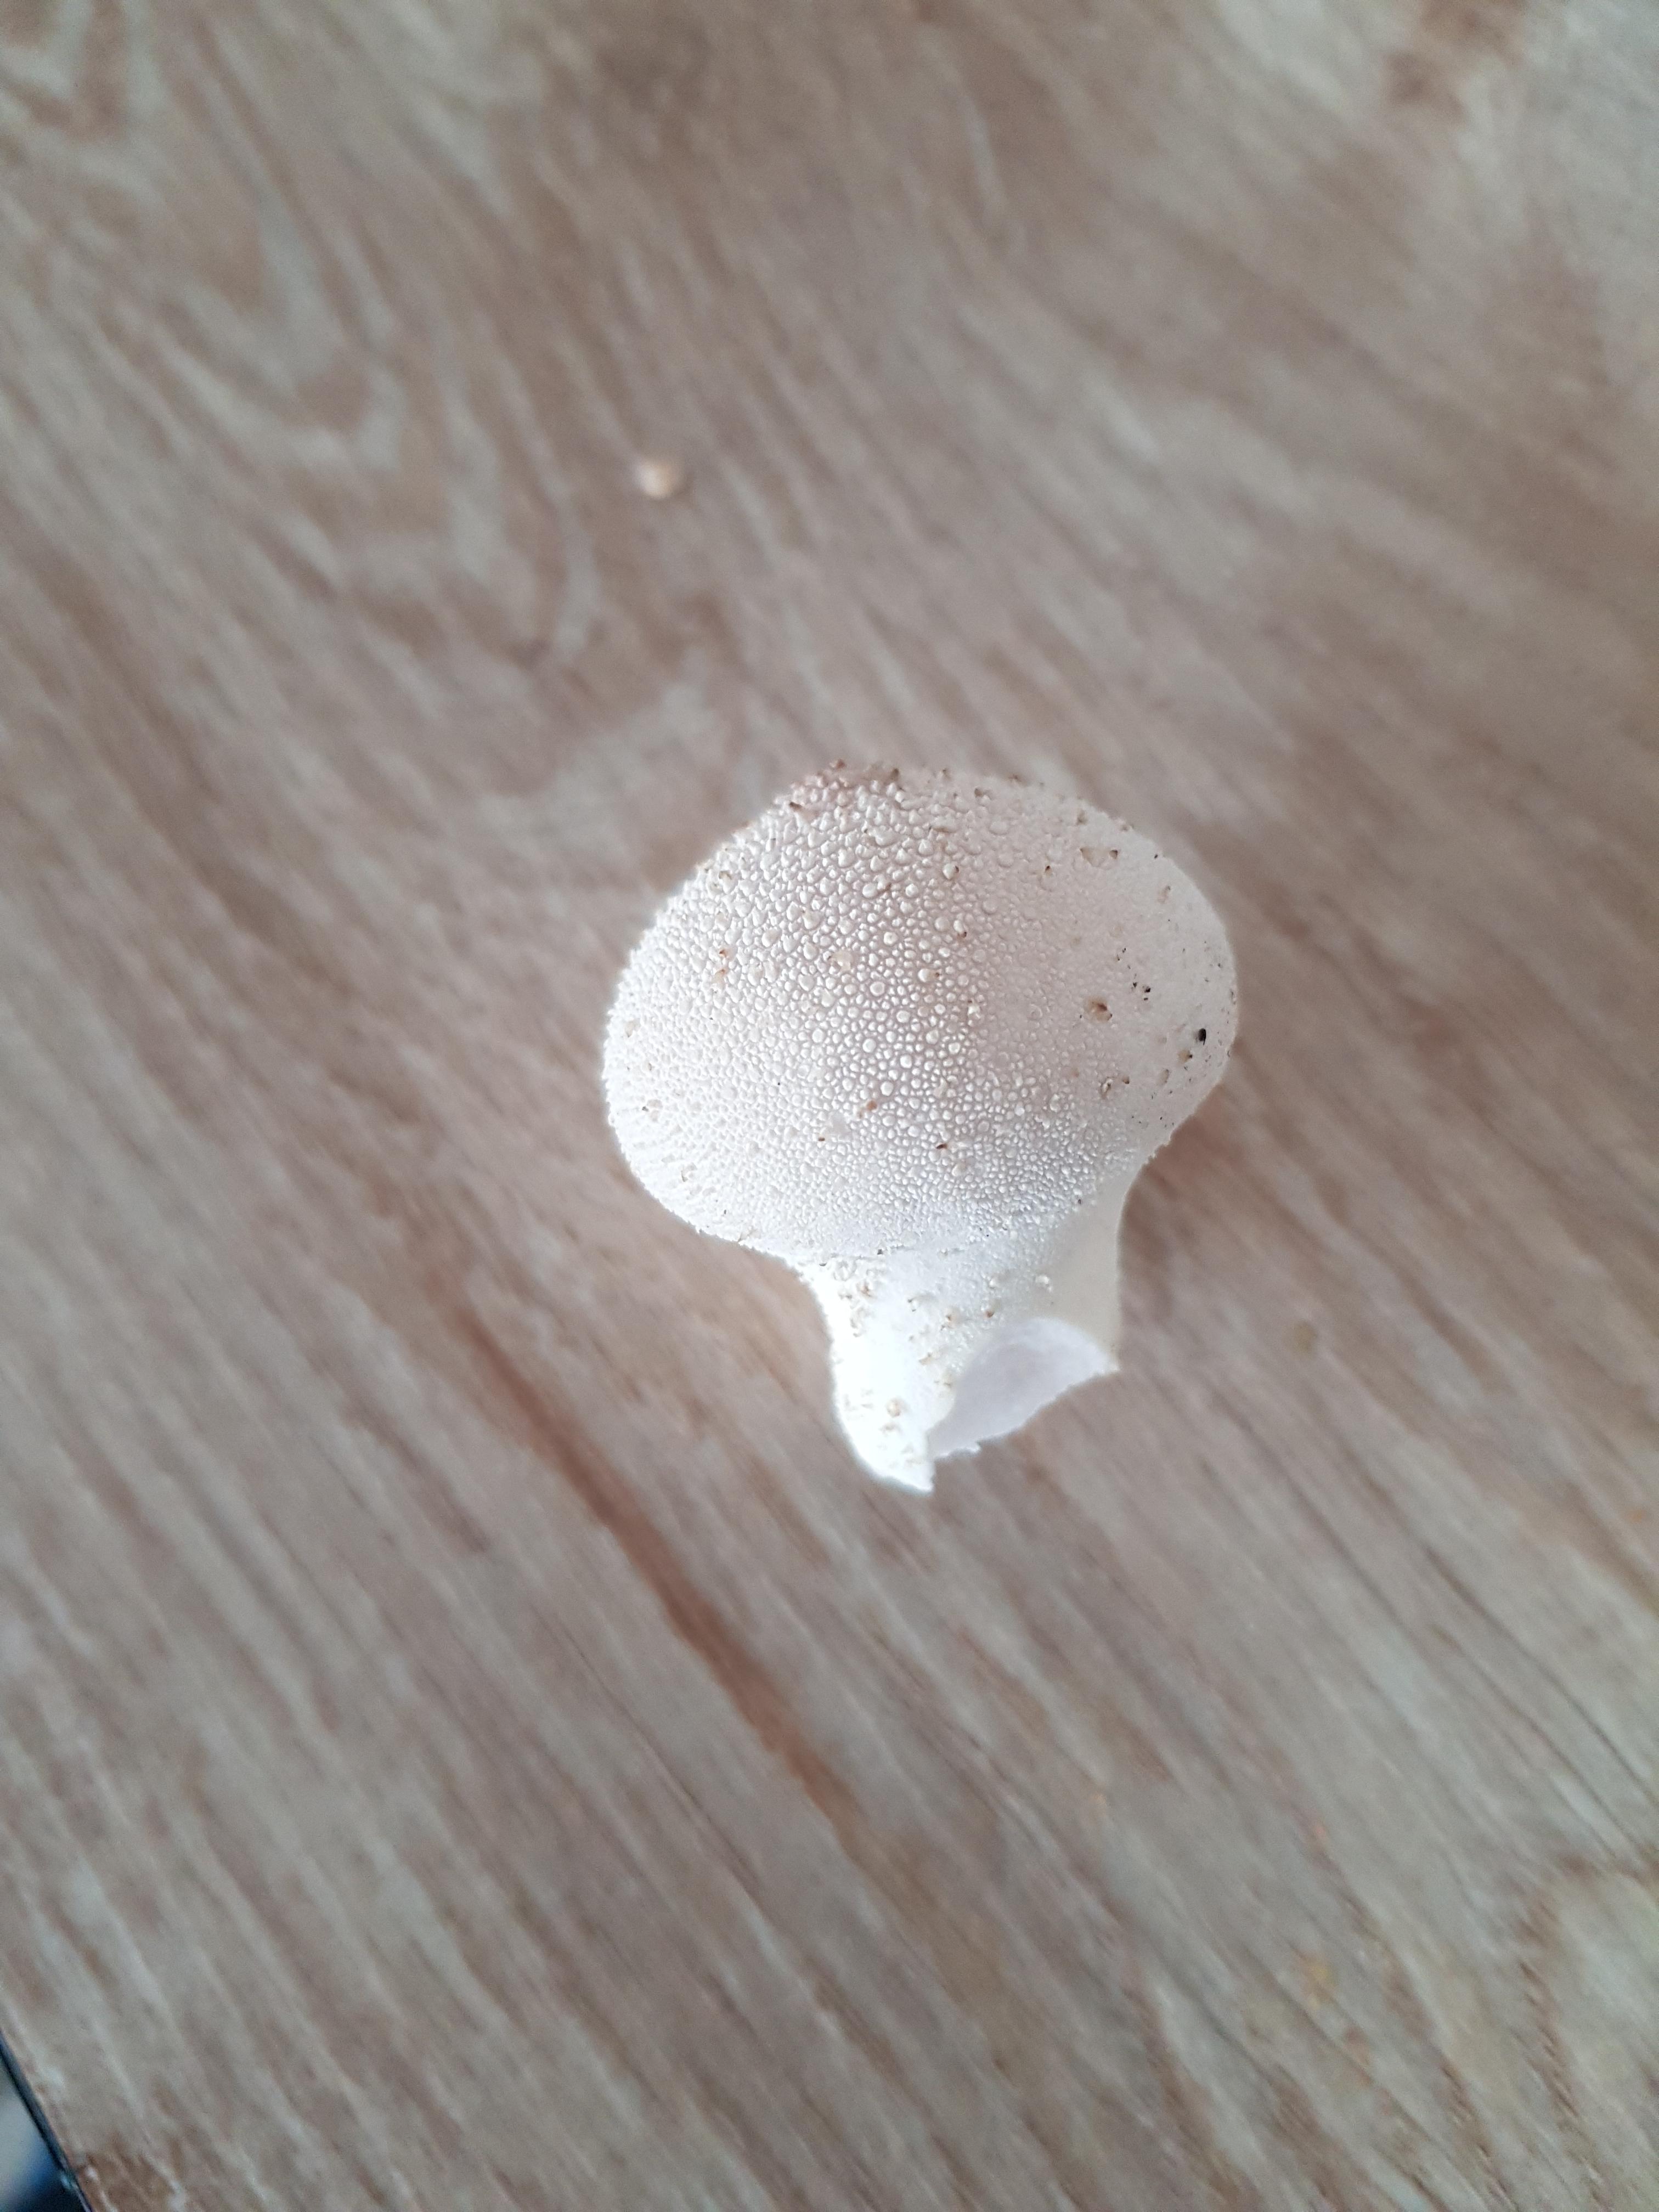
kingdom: Fungi
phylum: Basidiomycota
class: Agaricomycetes
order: Agaricales
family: Lycoperdaceae
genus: Lycoperdon
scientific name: Lycoperdon perlatum
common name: krystal-støvbold
